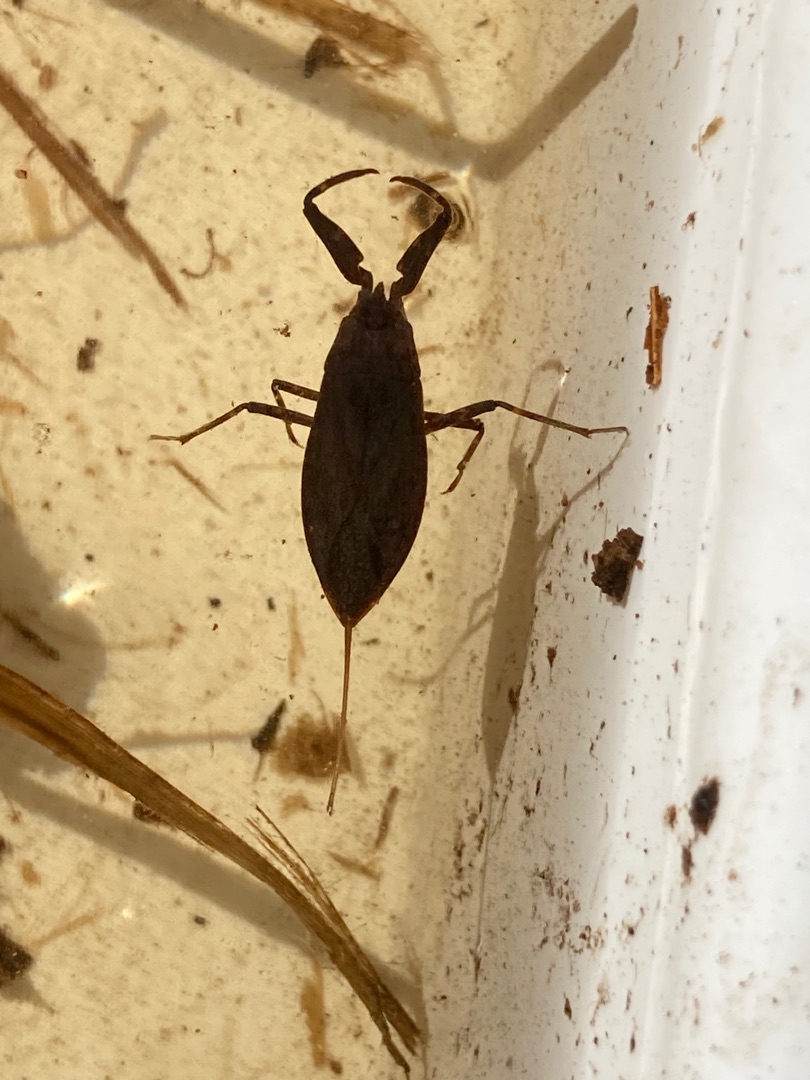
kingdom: Animalia
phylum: Arthropoda
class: Insecta
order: Hemiptera
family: Nepidae
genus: Nepa
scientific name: Nepa cinerea
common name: Skorpiontæge
